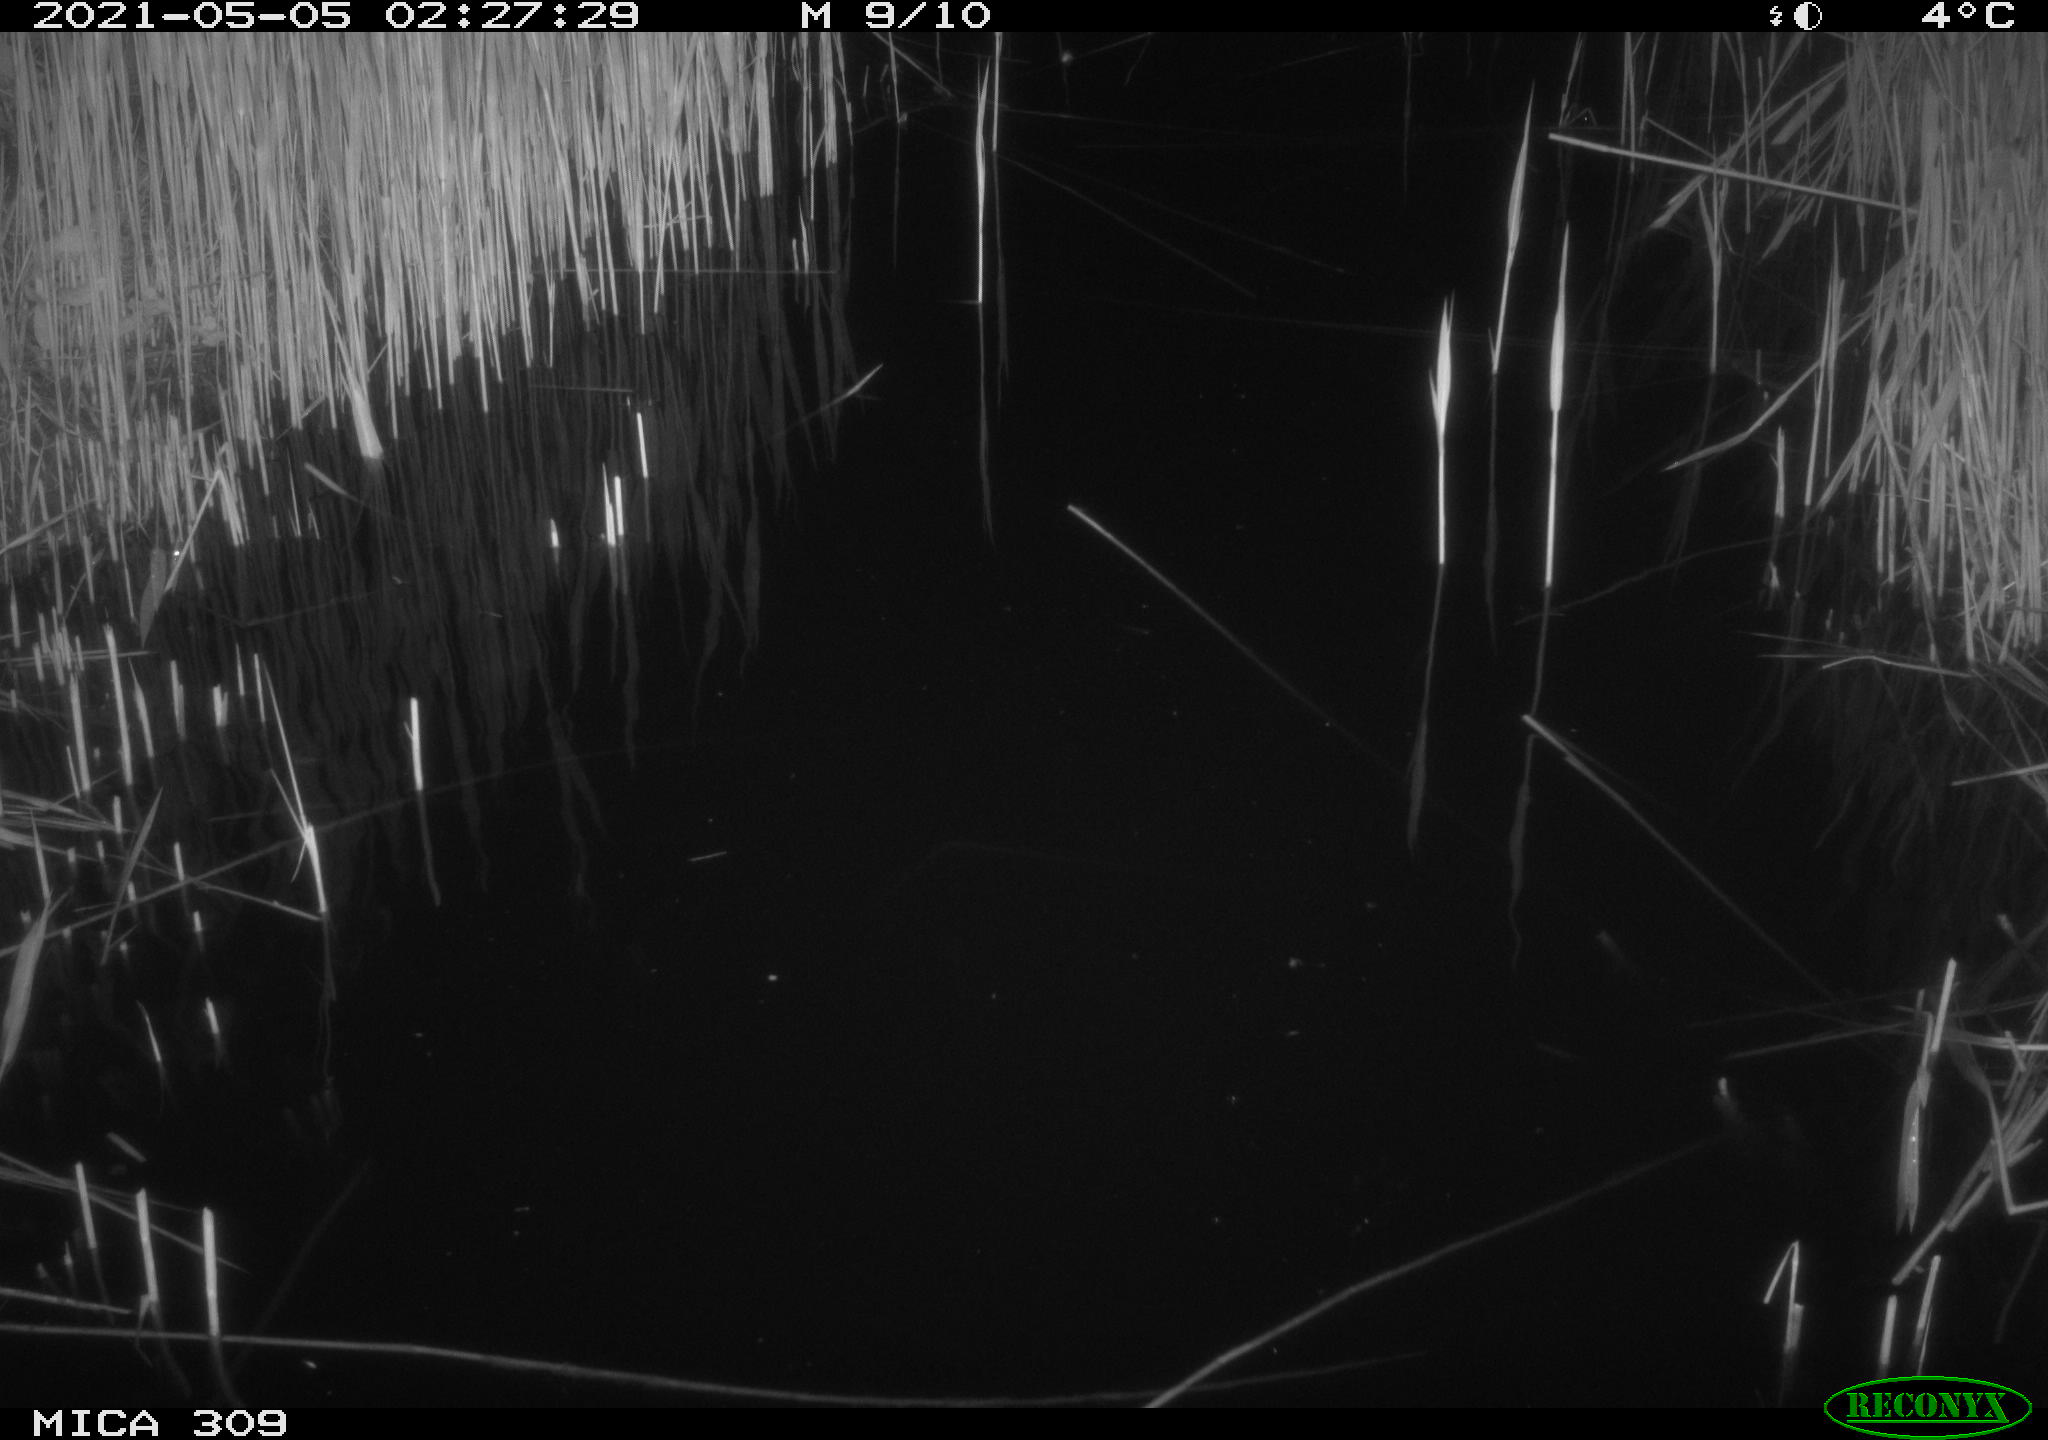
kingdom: Animalia
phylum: Chordata
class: Aves
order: Anseriformes
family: Anatidae
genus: Anas
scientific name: Anas platyrhynchos
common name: Mallard
